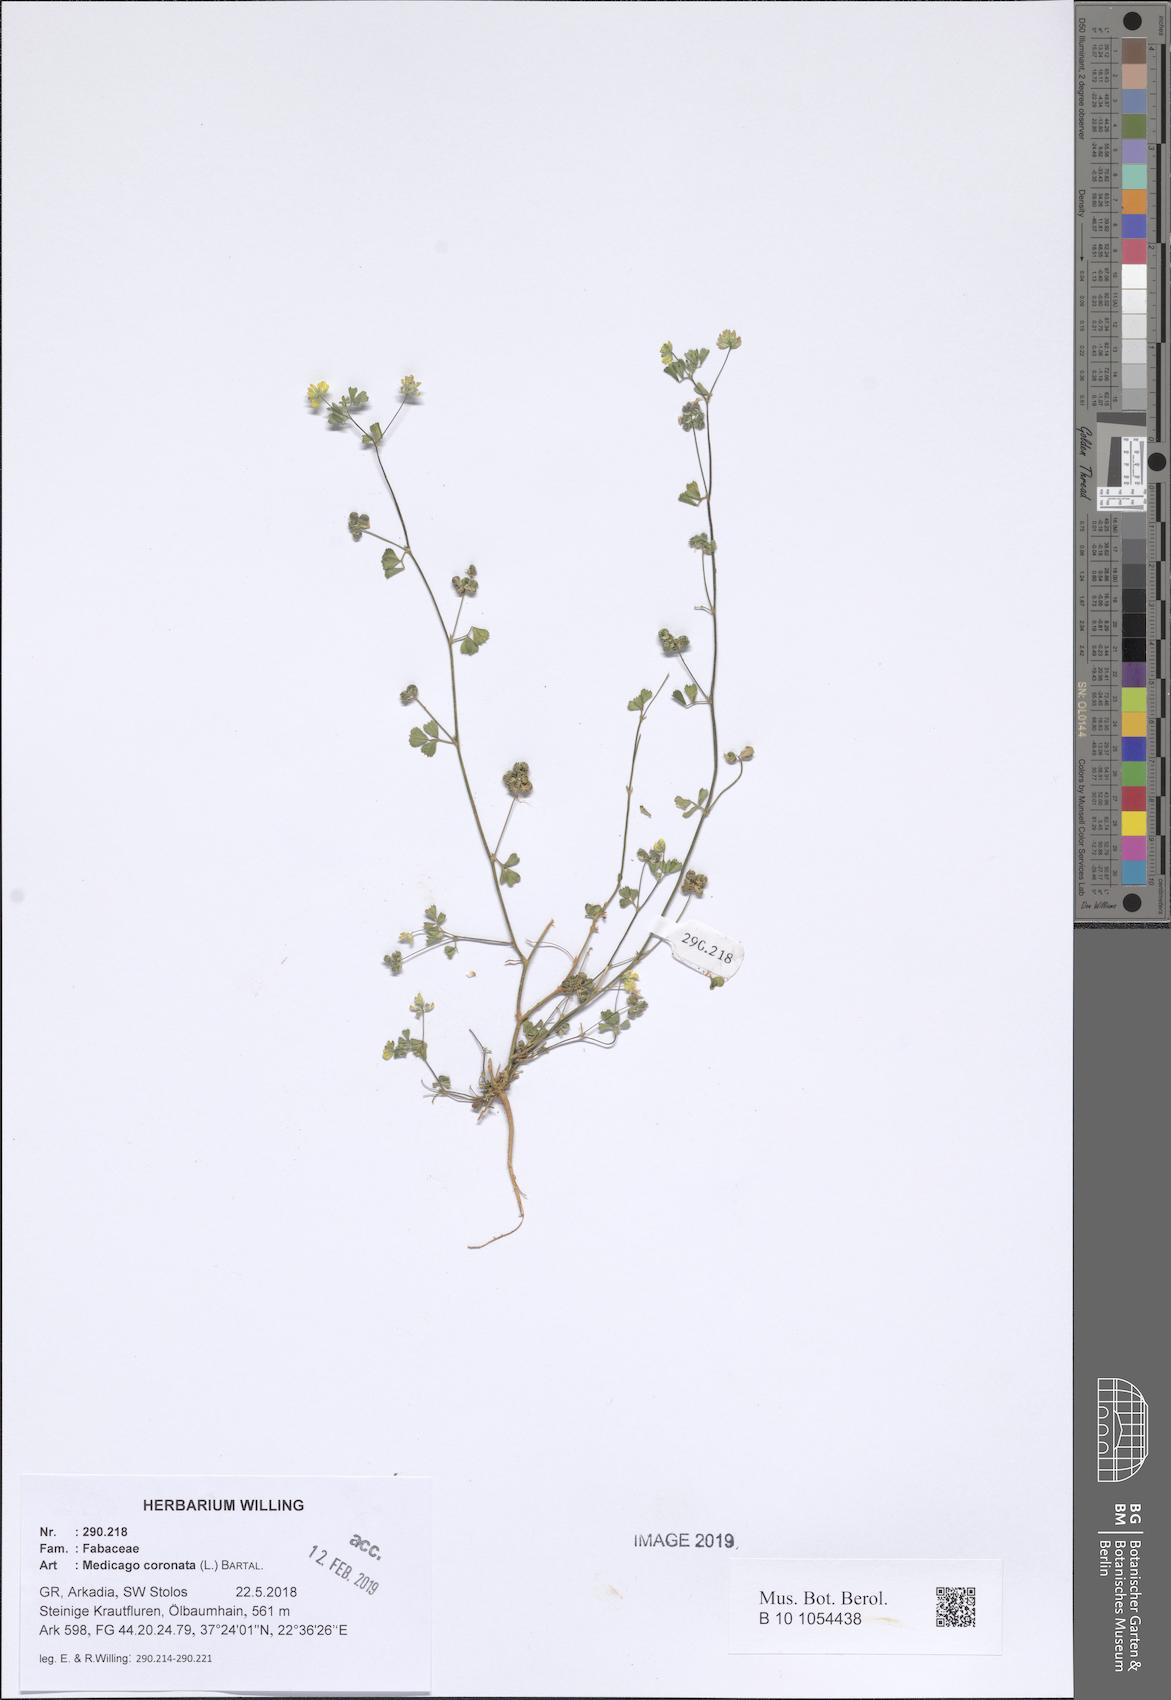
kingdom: Plantae
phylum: Tracheophyta
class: Magnoliopsida
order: Fabales
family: Fabaceae
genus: Medicago
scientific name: Medicago coronata
